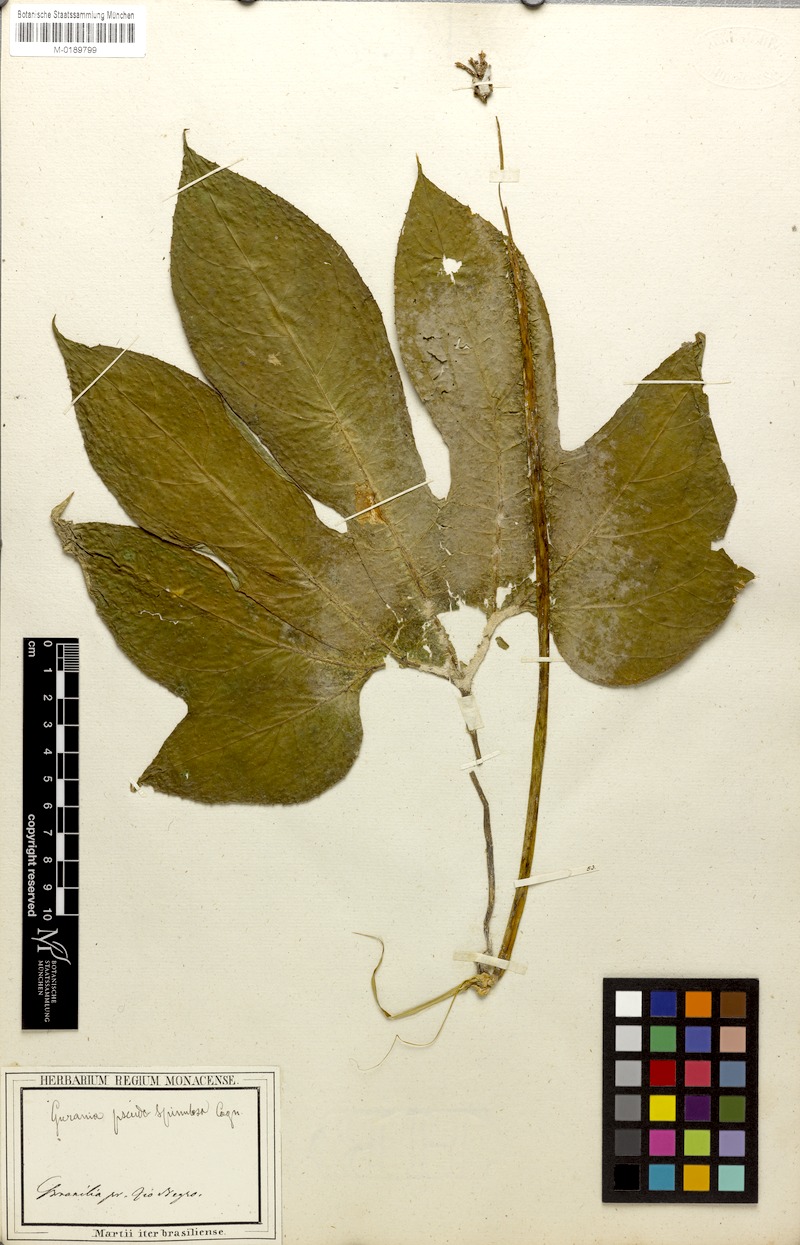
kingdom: Plantae
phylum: Tracheophyta
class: Magnoliopsida
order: Cucurbitales
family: Cucurbitaceae
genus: Gurania
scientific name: Gurania pseudospinulosa
